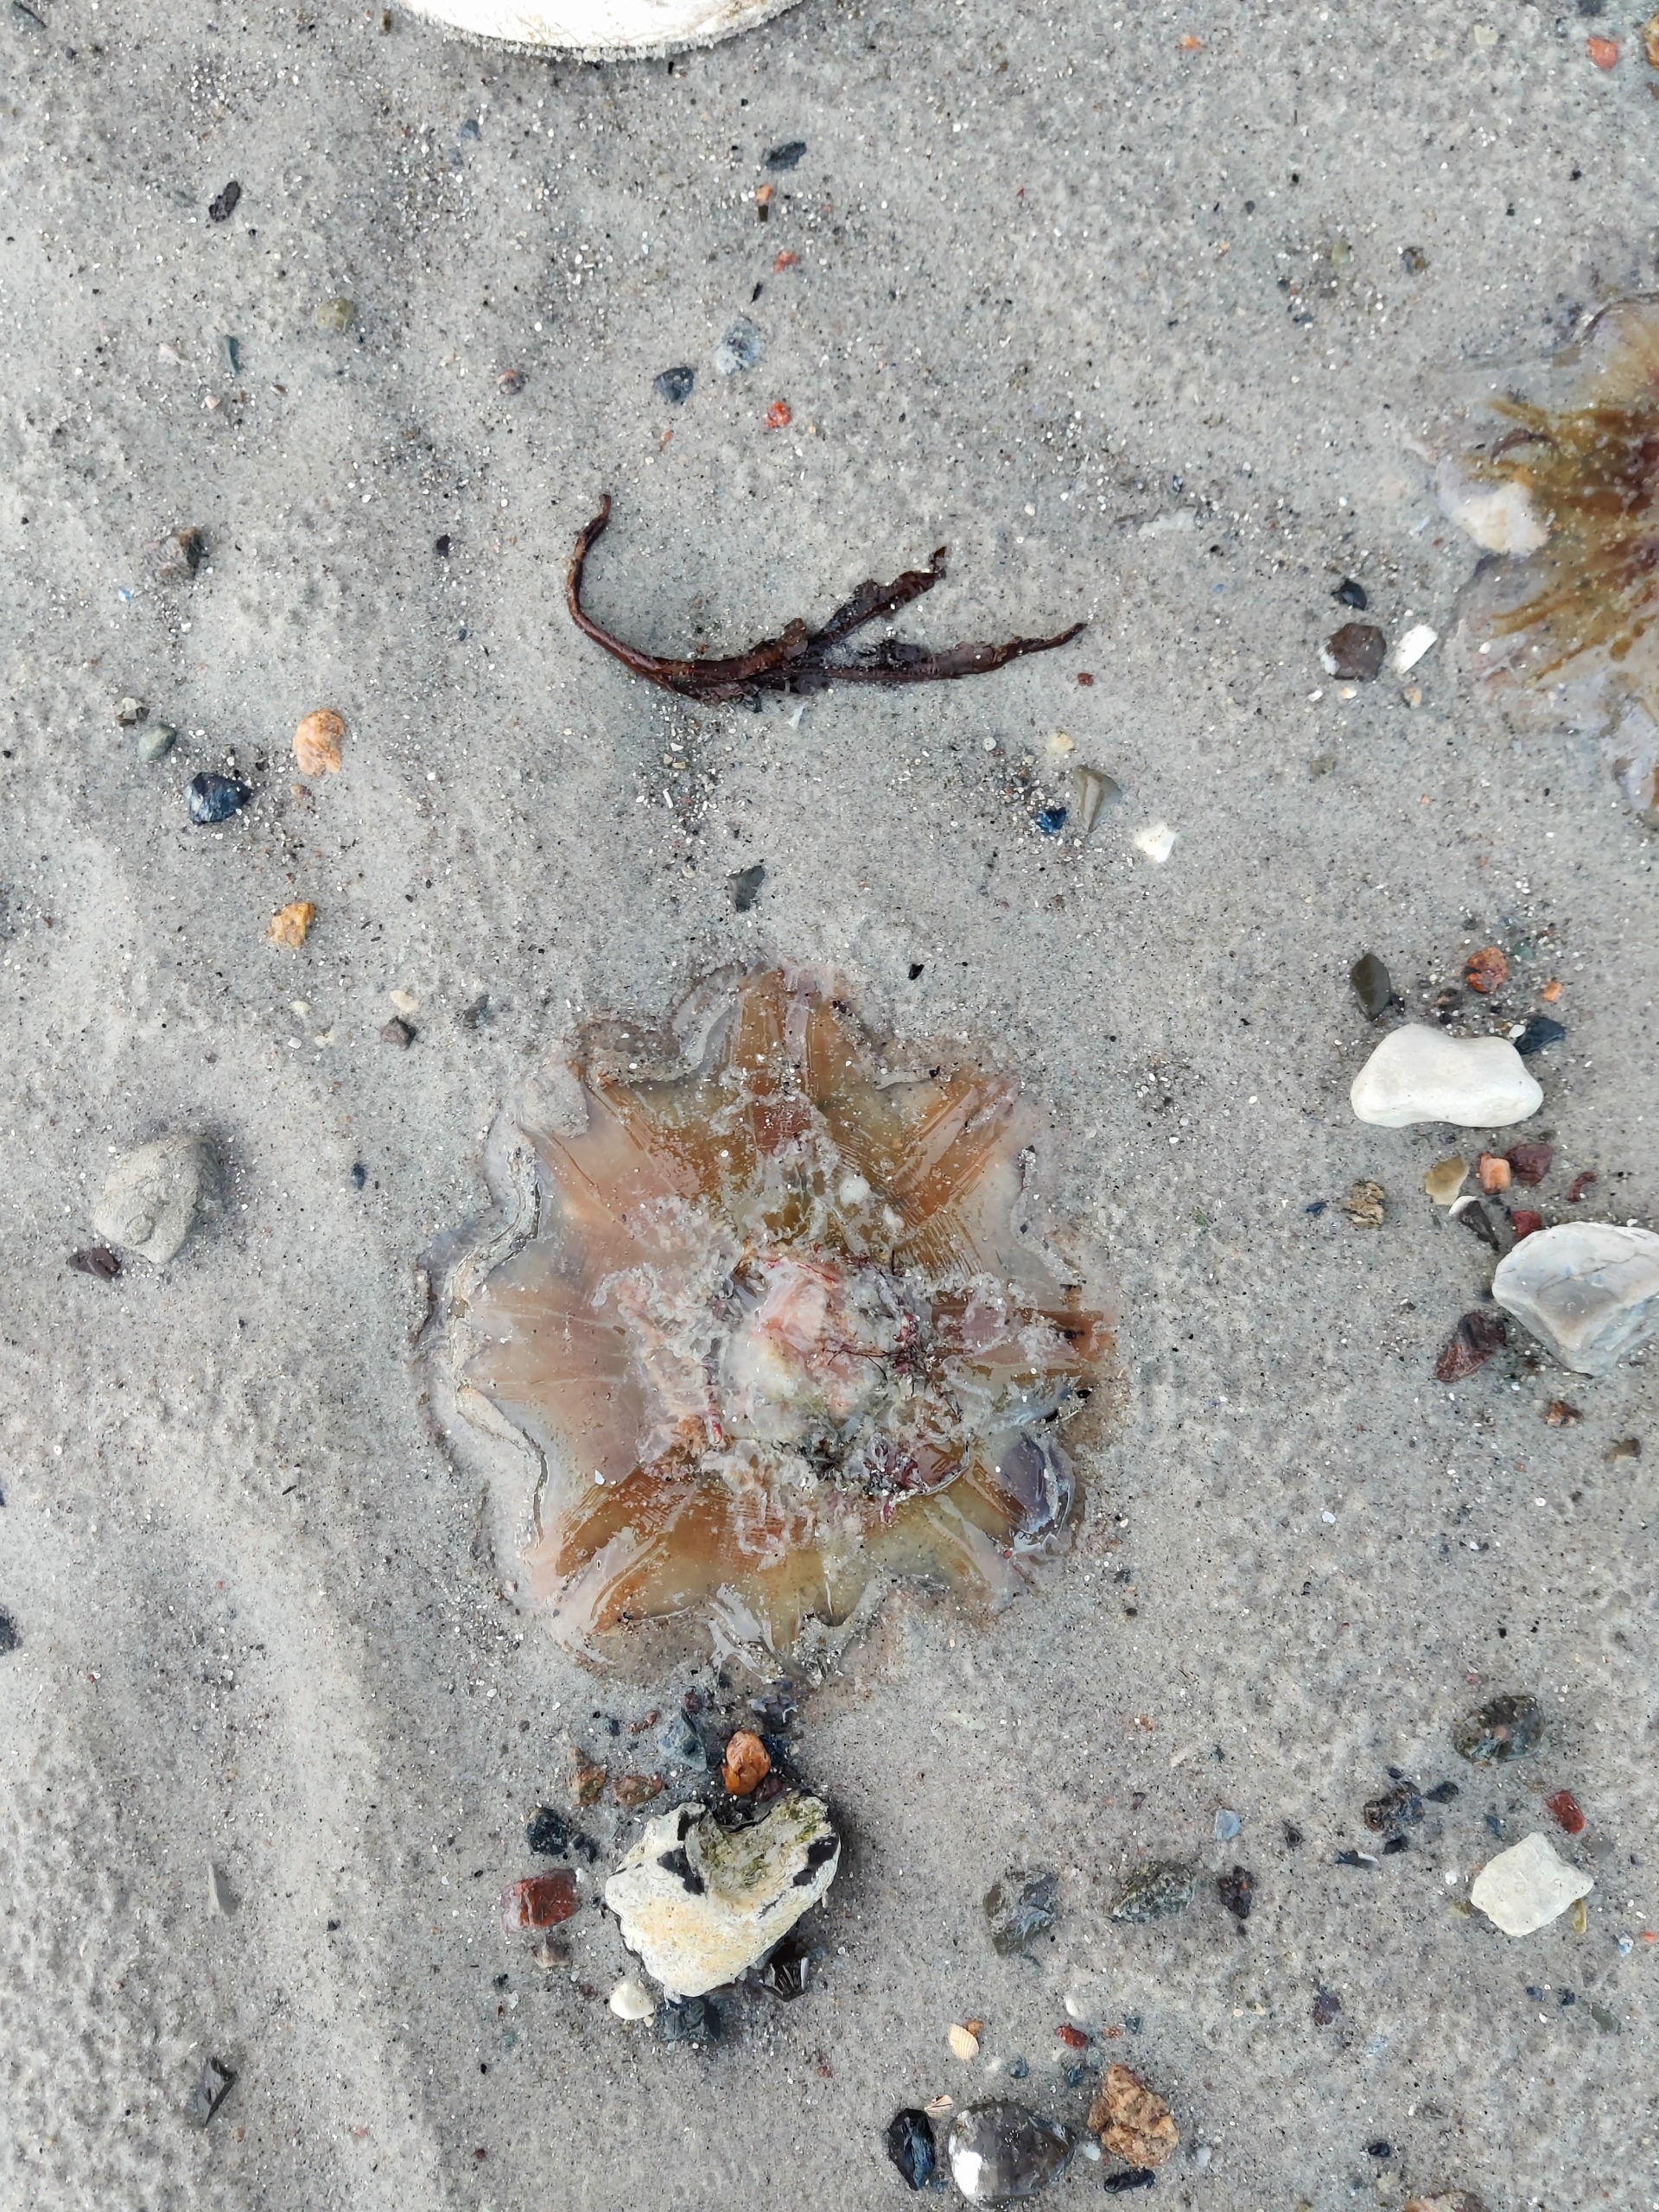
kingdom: Animalia
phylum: Cnidaria
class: Scyphozoa
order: Semaeostomeae
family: Cyaneidae
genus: Cyanea
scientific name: Cyanea capillata
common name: Rød brandmand
